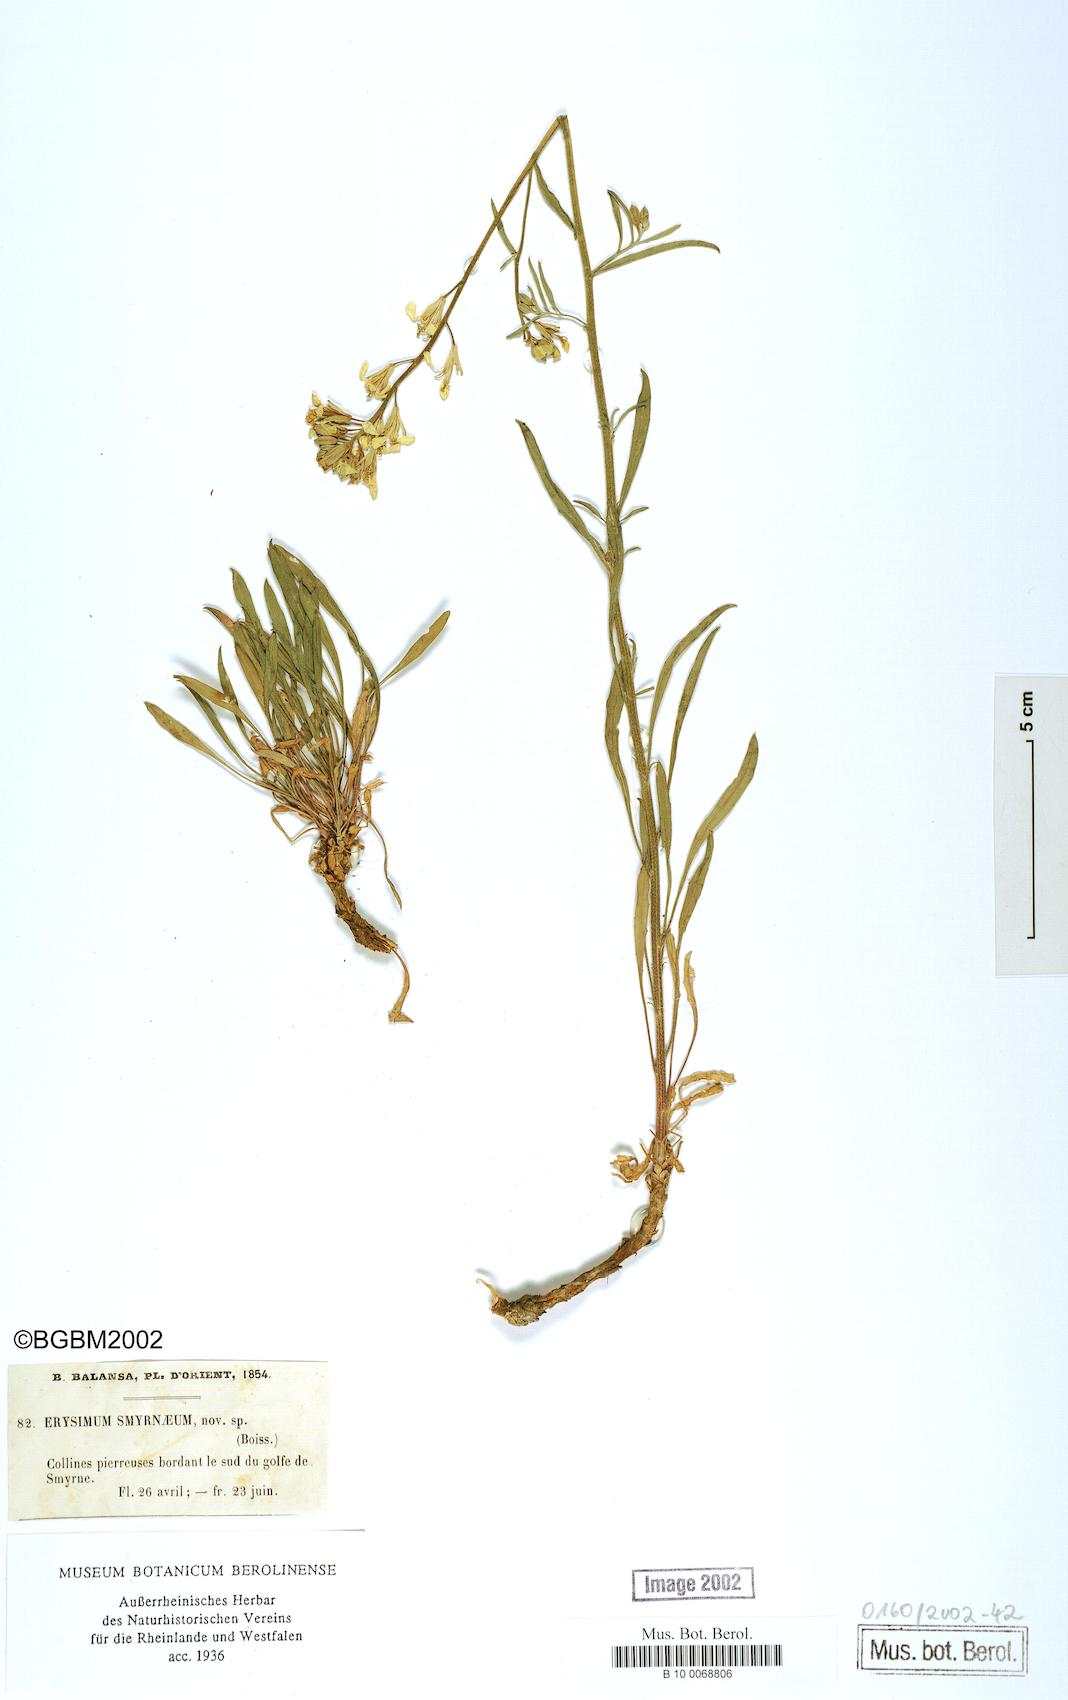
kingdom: Plantae
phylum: Tracheophyta
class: Magnoliopsida
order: Brassicales
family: Brassicaceae
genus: Erysimum
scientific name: Erysimum smyrnaeum
